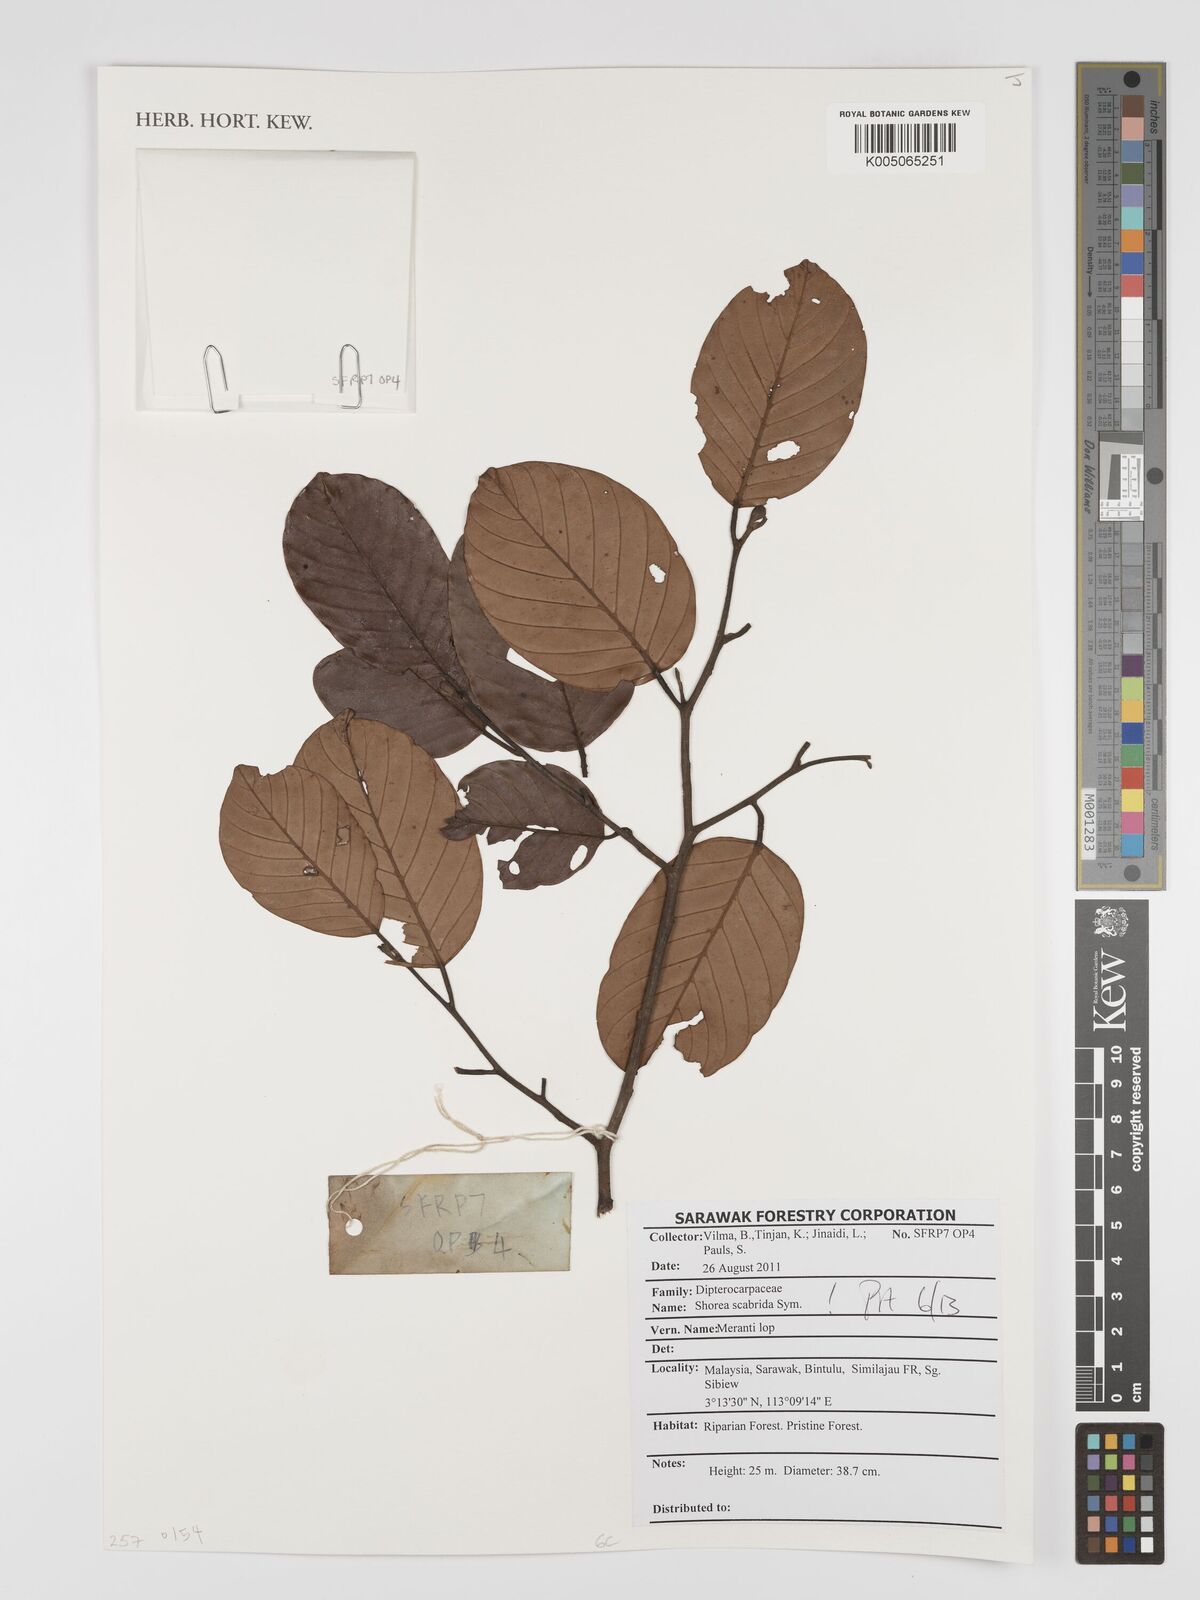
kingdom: Plantae
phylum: Tracheophyta
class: Magnoliopsida
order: Malvales
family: Dipterocarpaceae
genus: Shorea
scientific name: Shorea scabrida
